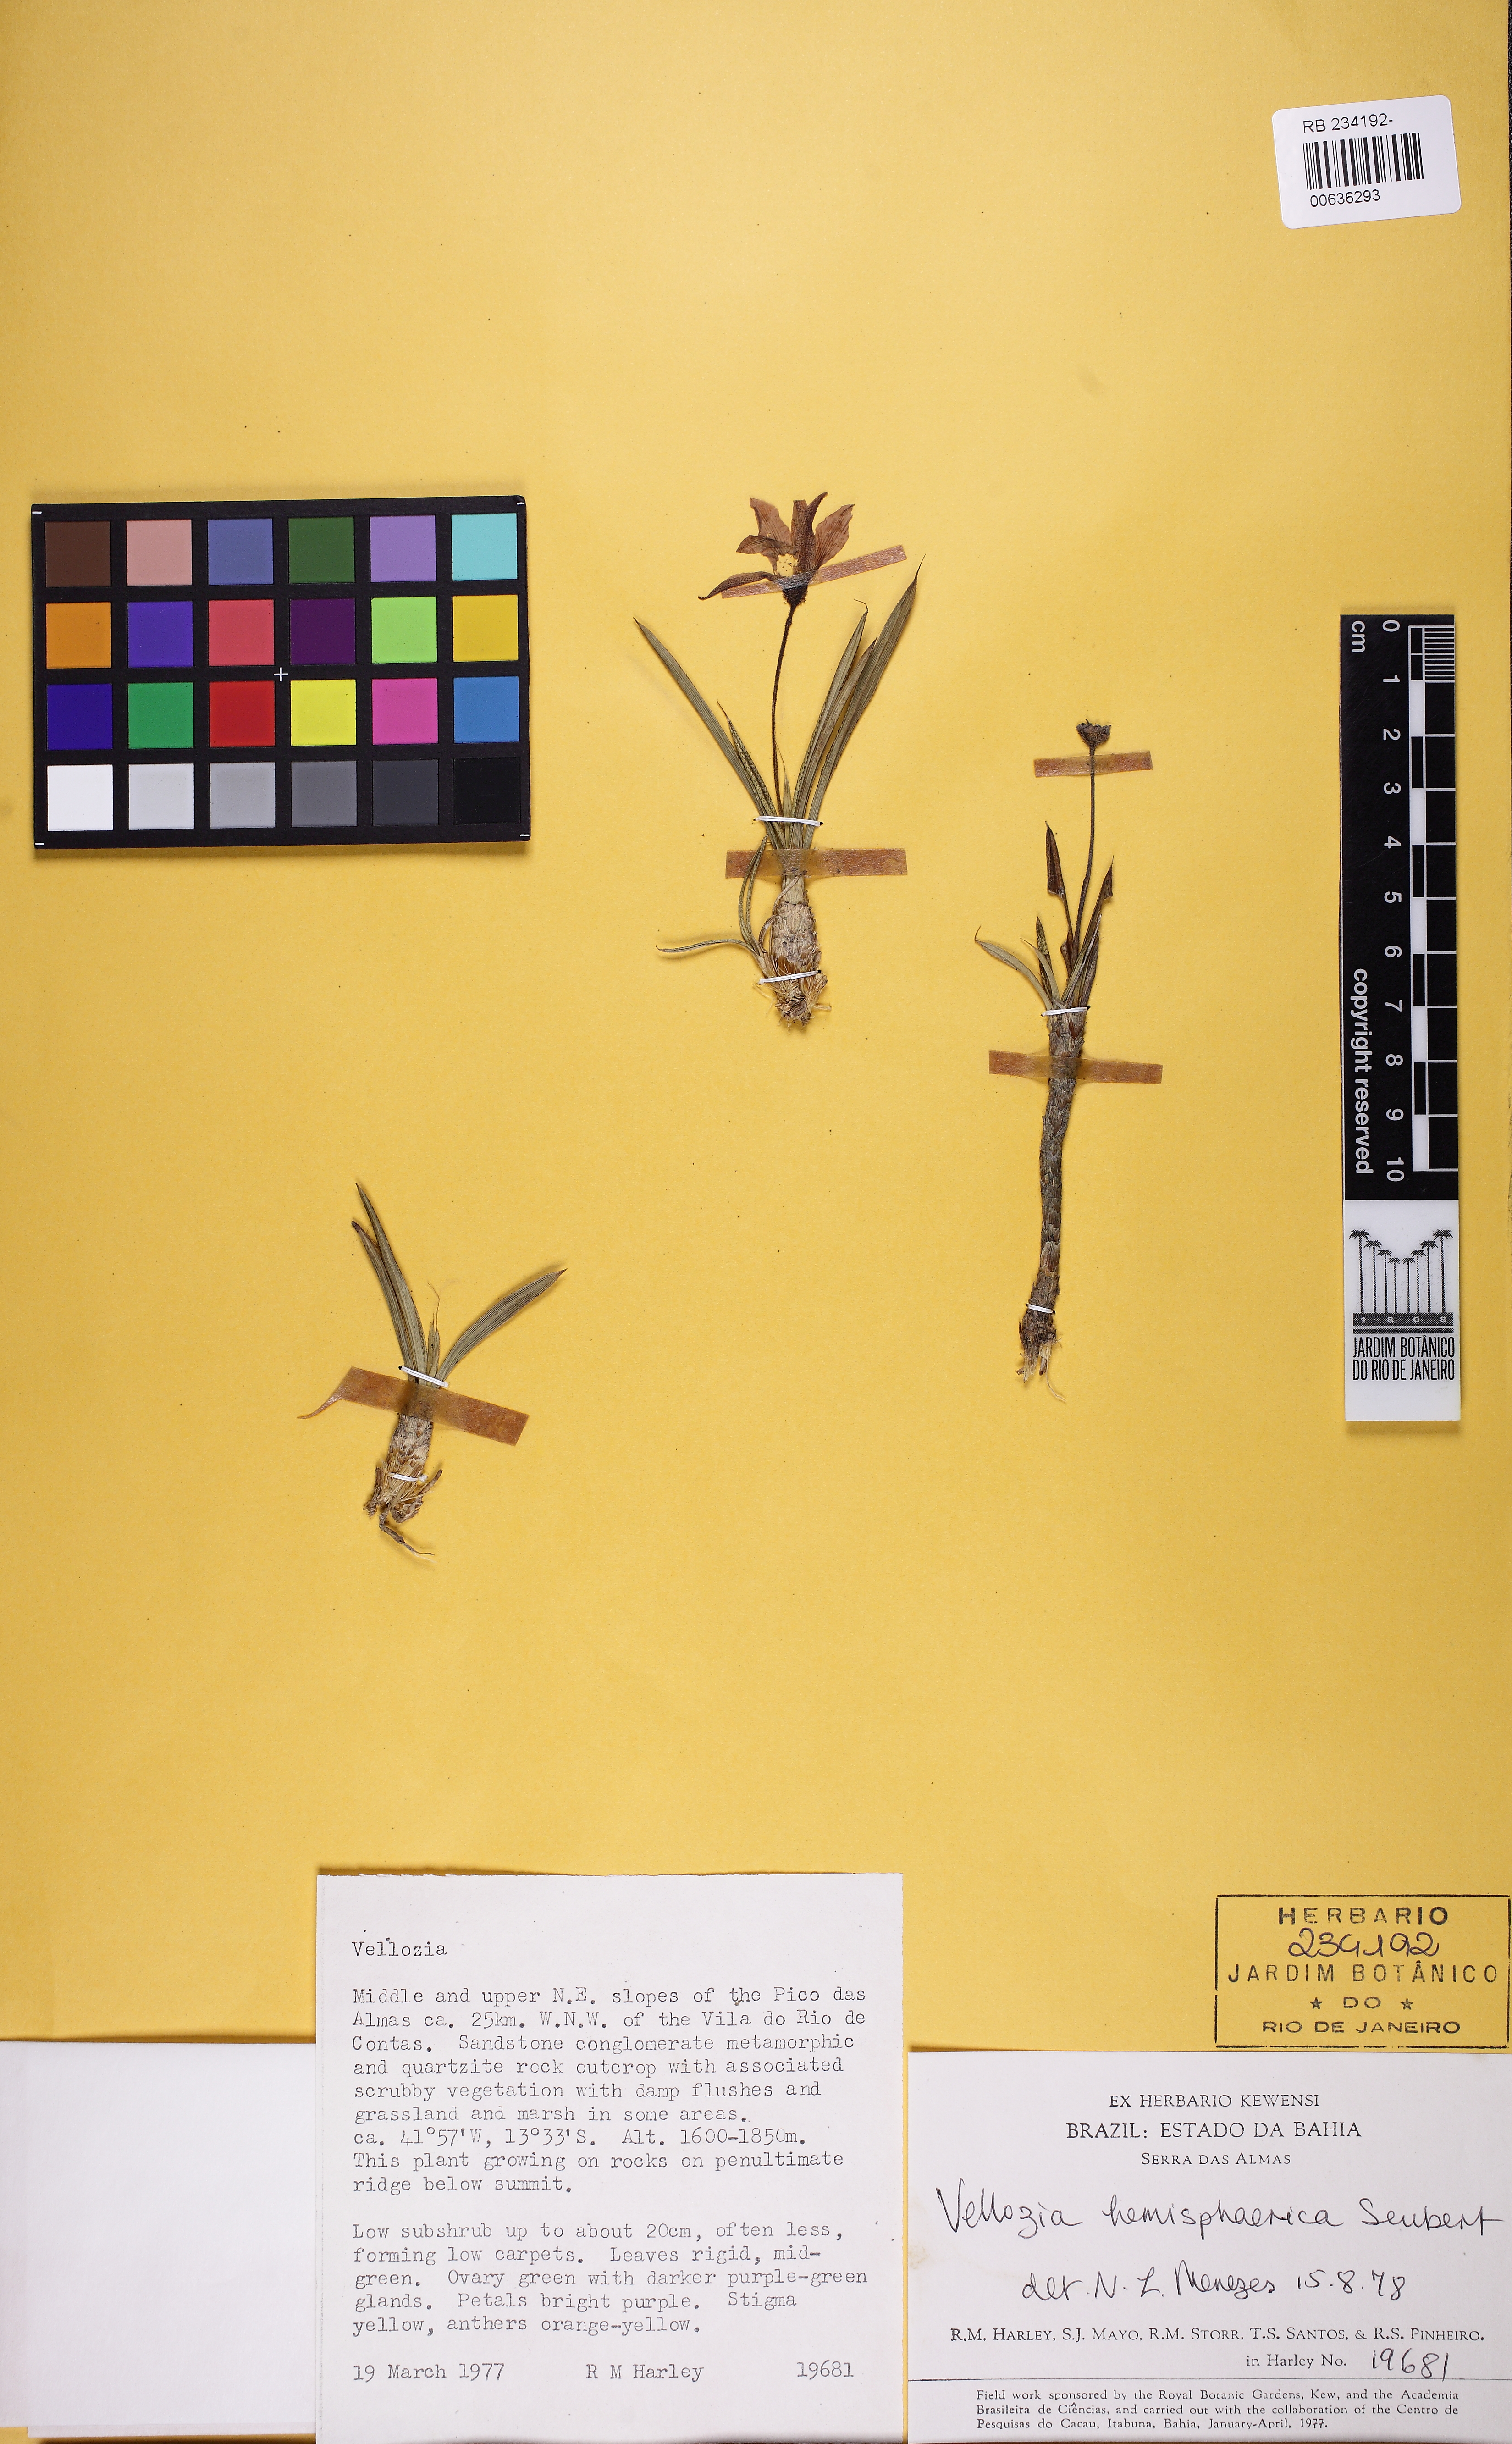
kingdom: Plantae
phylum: Tracheophyta
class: Liliopsida
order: Pandanales
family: Velloziaceae
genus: Vellozia
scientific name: Vellozia hemisphaerica
